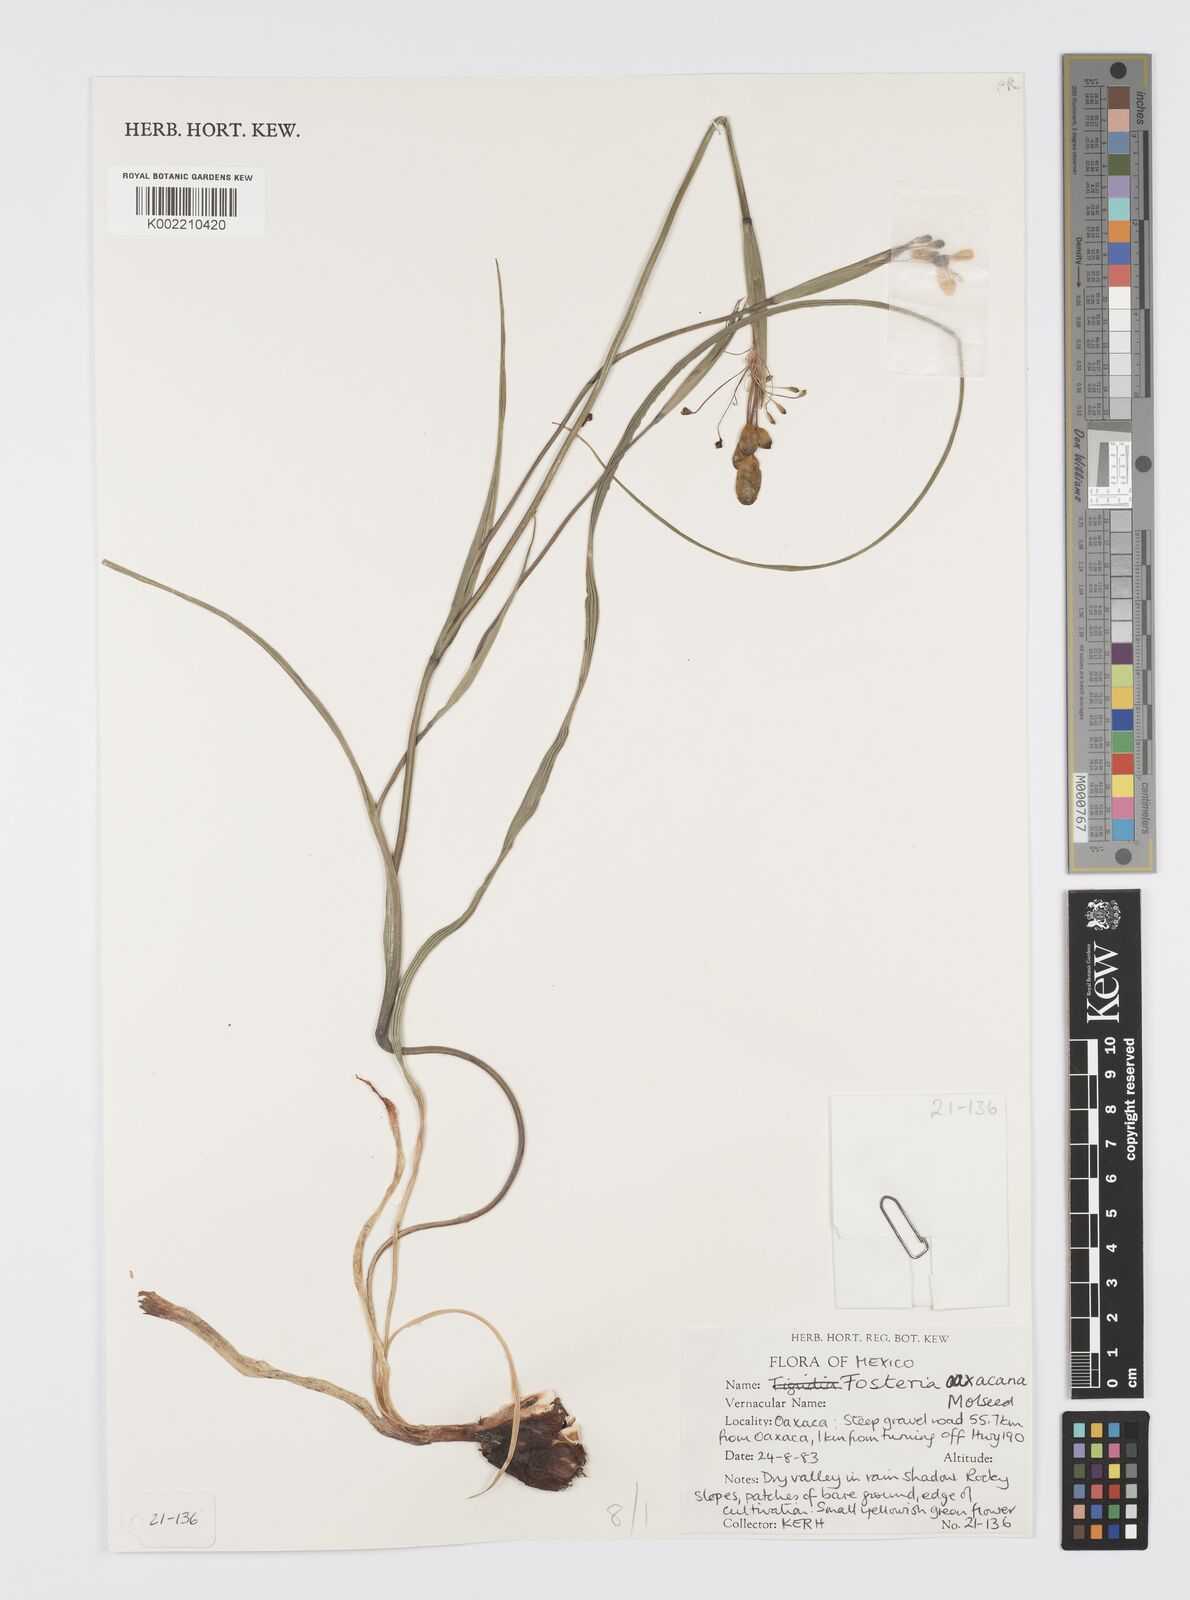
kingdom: Plantae
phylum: Tracheophyta
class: Liliopsida
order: Asparagales
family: Iridaceae
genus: Tigridia
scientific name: Tigridia oaxacana
